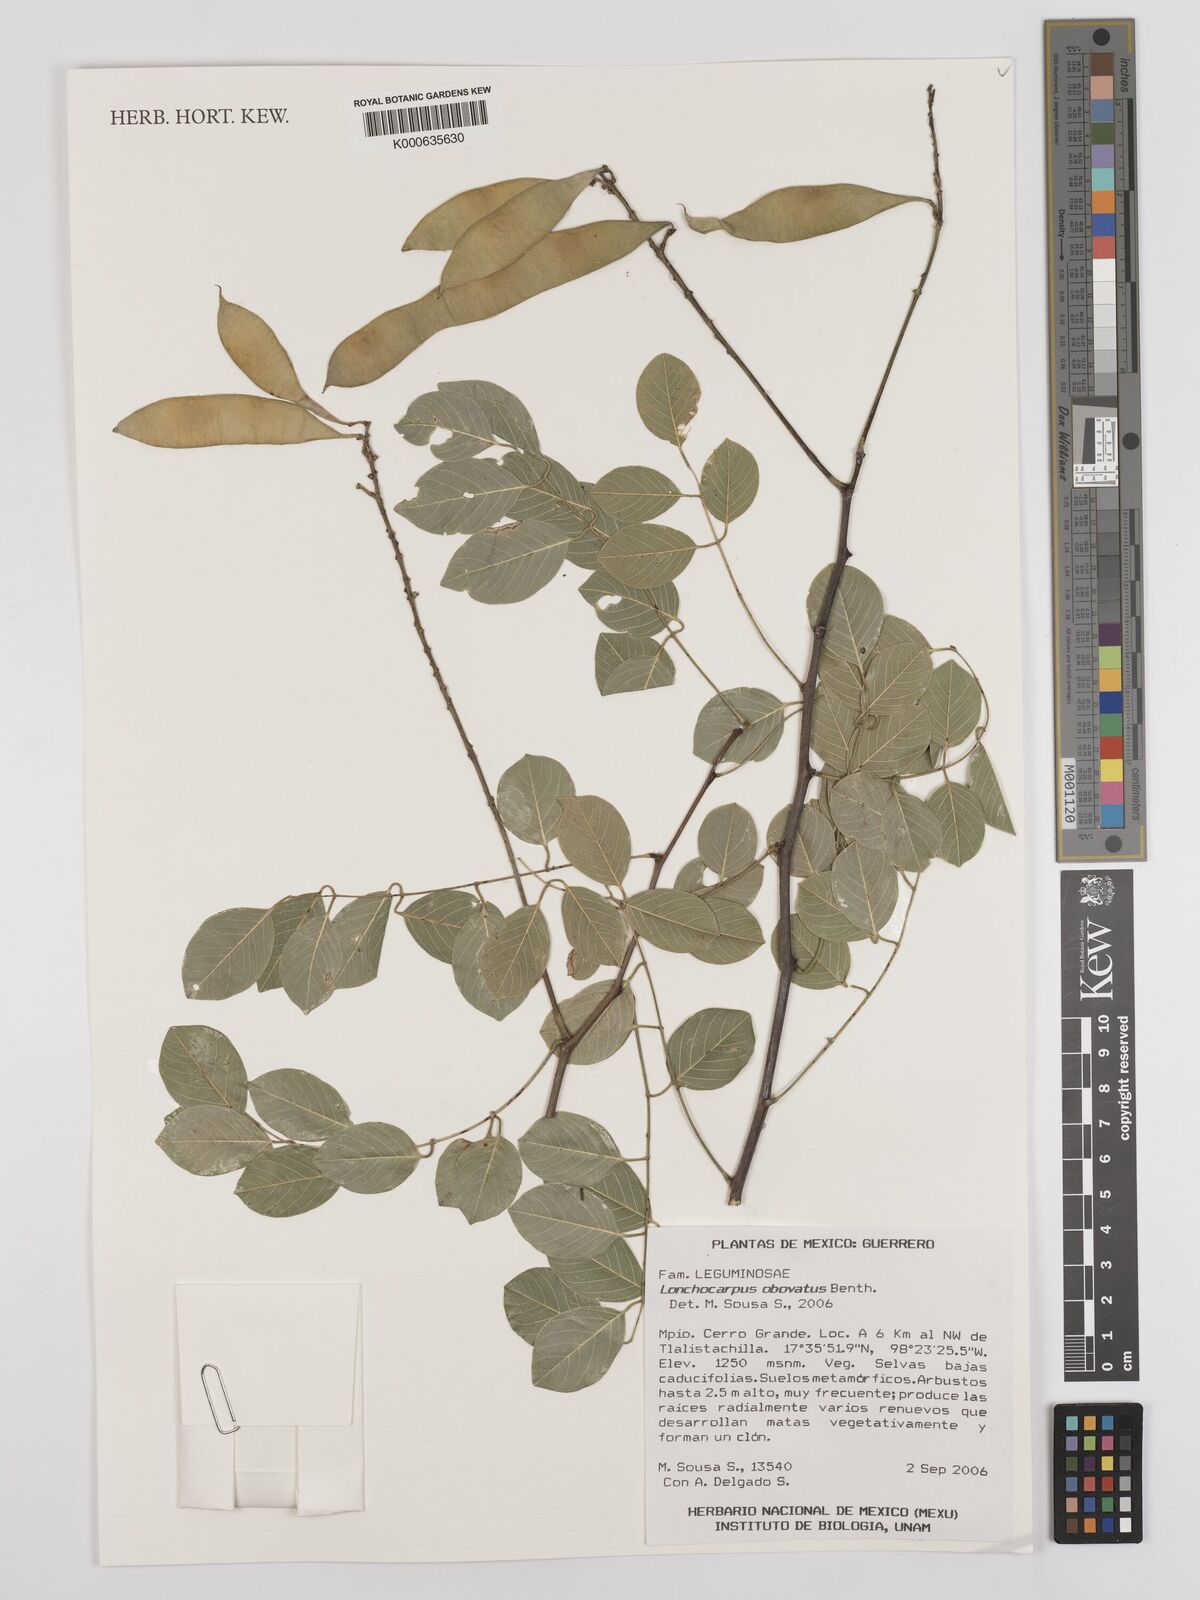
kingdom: Plantae
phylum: Tracheophyta
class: Magnoliopsida
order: Fabales
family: Fabaceae
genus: Lonchocarpus
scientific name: Lonchocarpus obovatus
